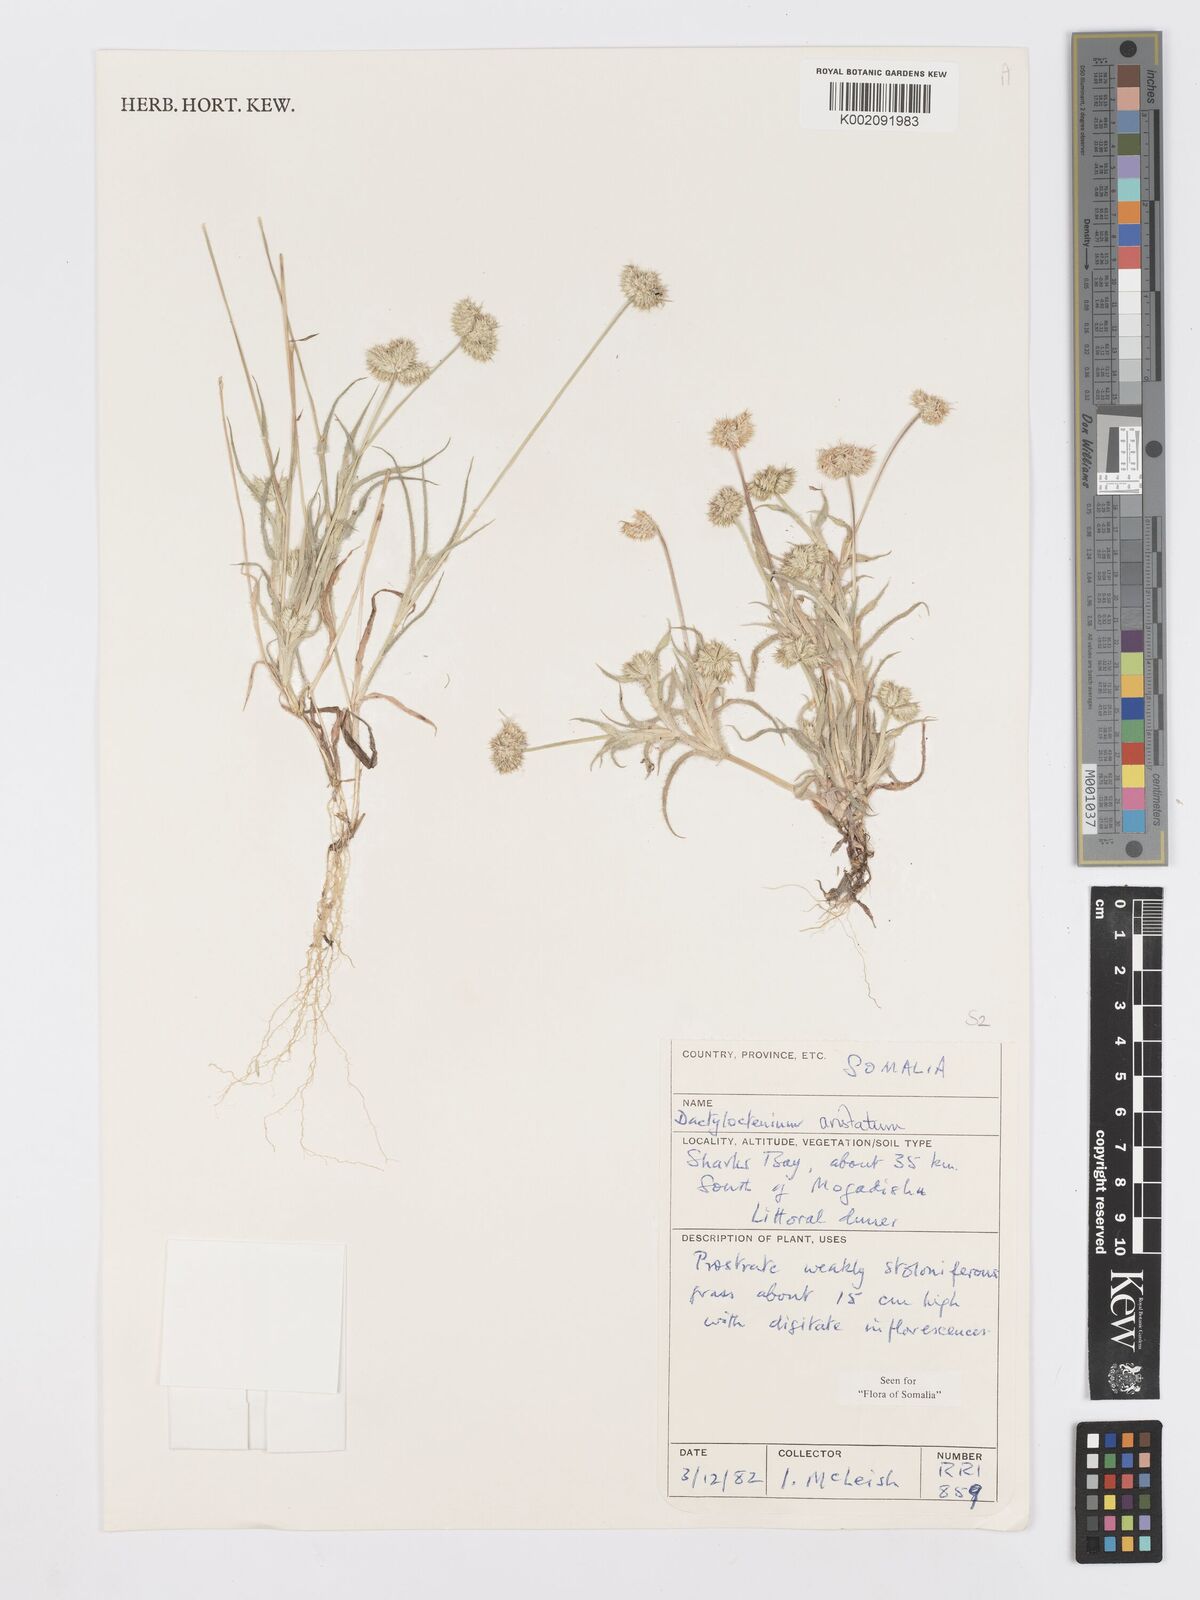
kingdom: Plantae
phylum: Tracheophyta
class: Liliopsida
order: Poales
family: Poaceae
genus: Dactyloctenium
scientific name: Dactyloctenium aristatum
